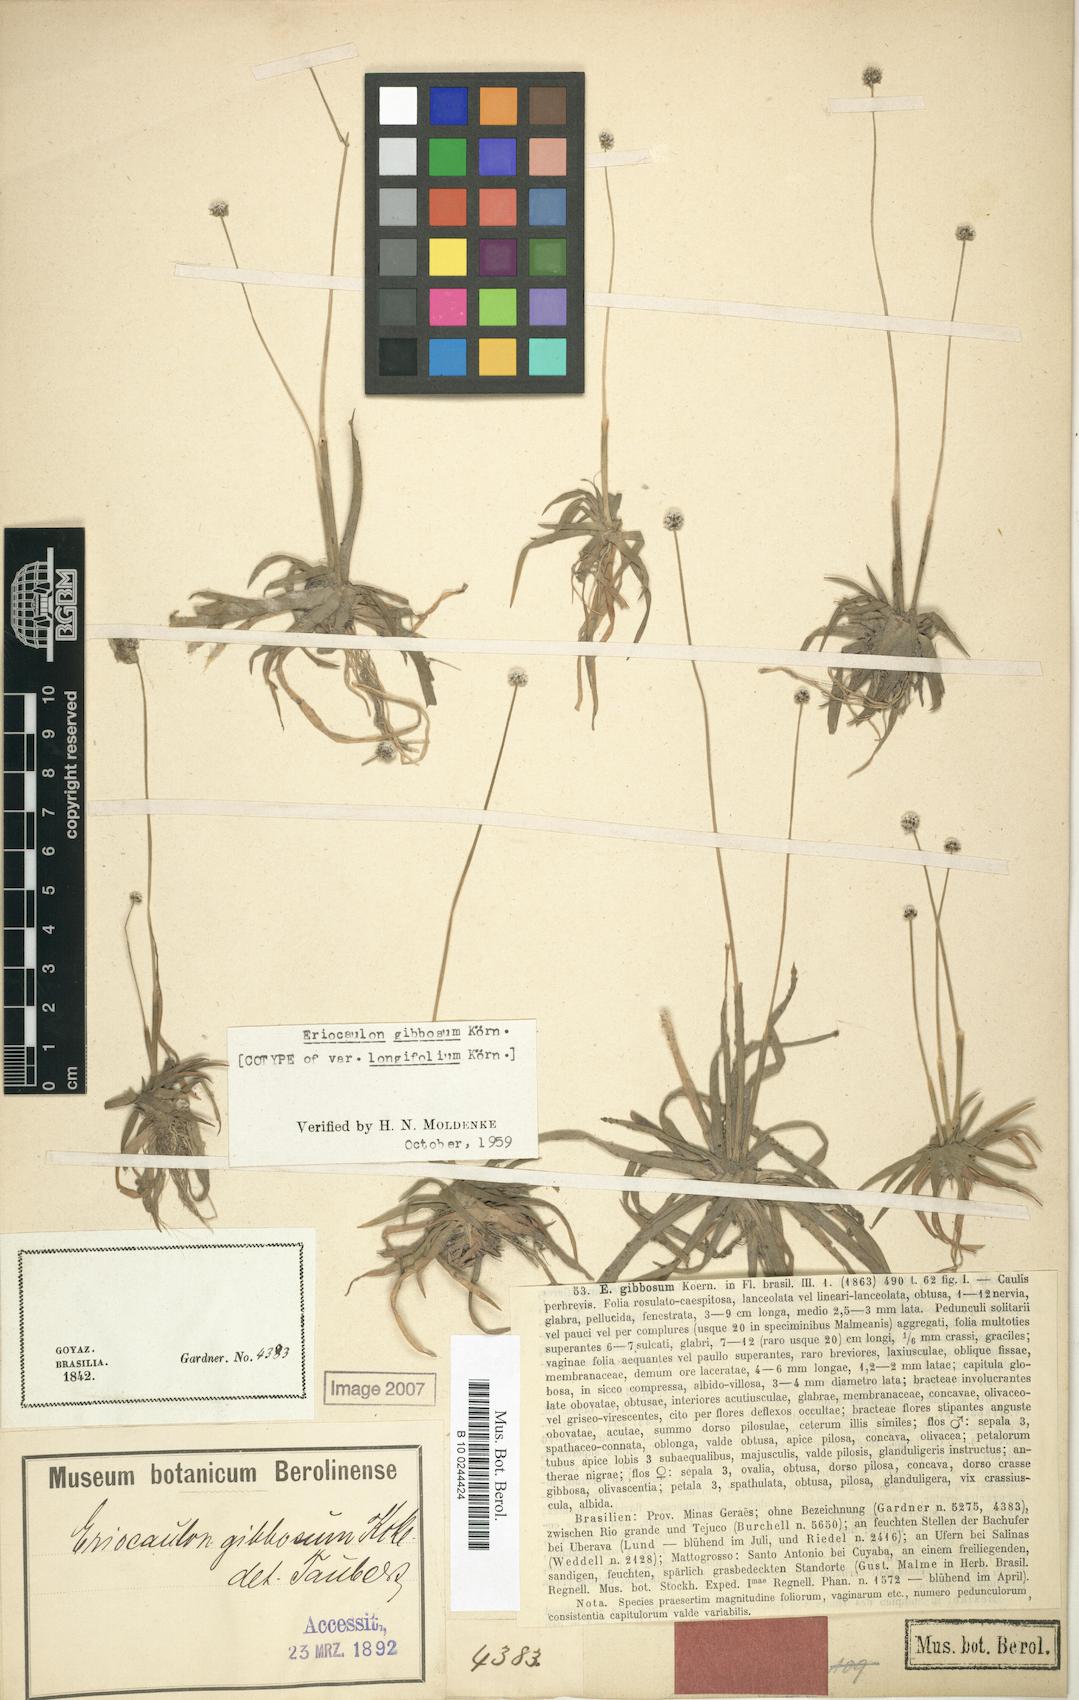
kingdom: Plantae
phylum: Tracheophyta
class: Liliopsida
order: Poales
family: Eriocaulaceae
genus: Eriocaulon
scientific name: Eriocaulon gibbosum
